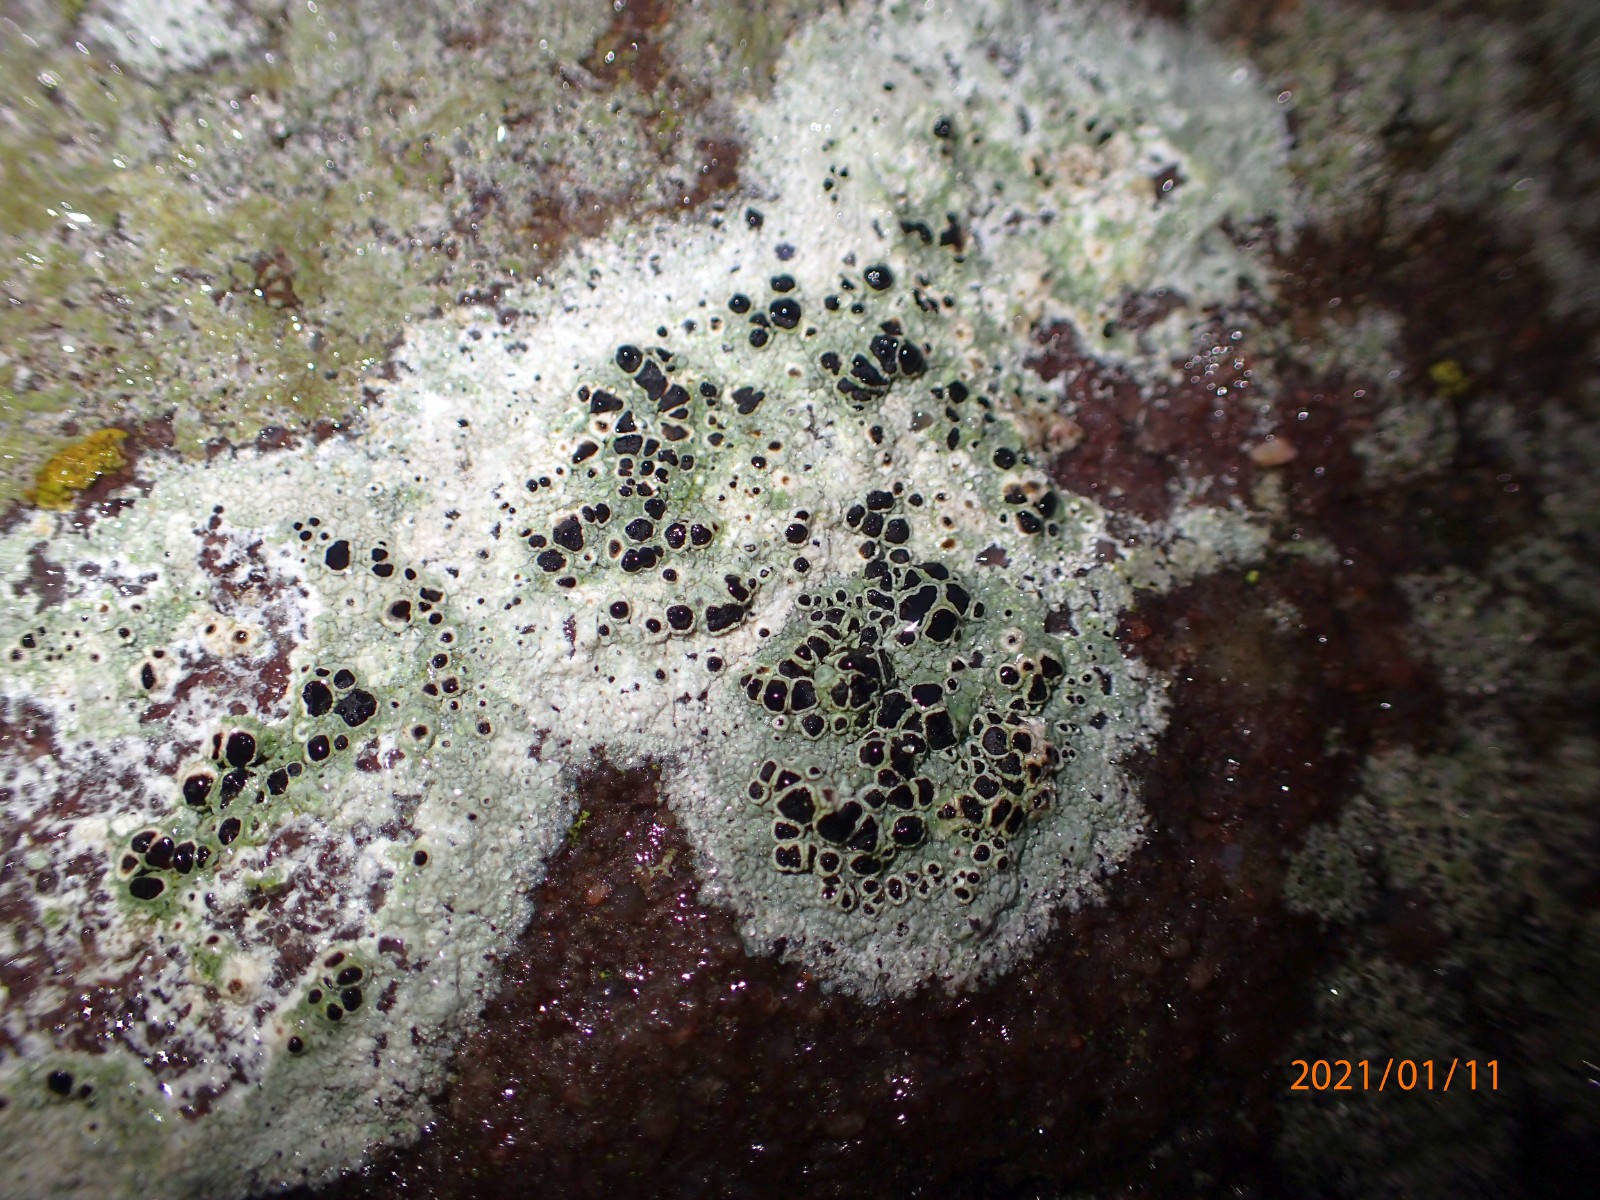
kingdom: Fungi
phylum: Ascomycota
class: Lecanoromycetes
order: Lecanorales
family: Lecanoraceae
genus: Lecanora
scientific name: Lecanora campestris
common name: mur-kantskivelav
